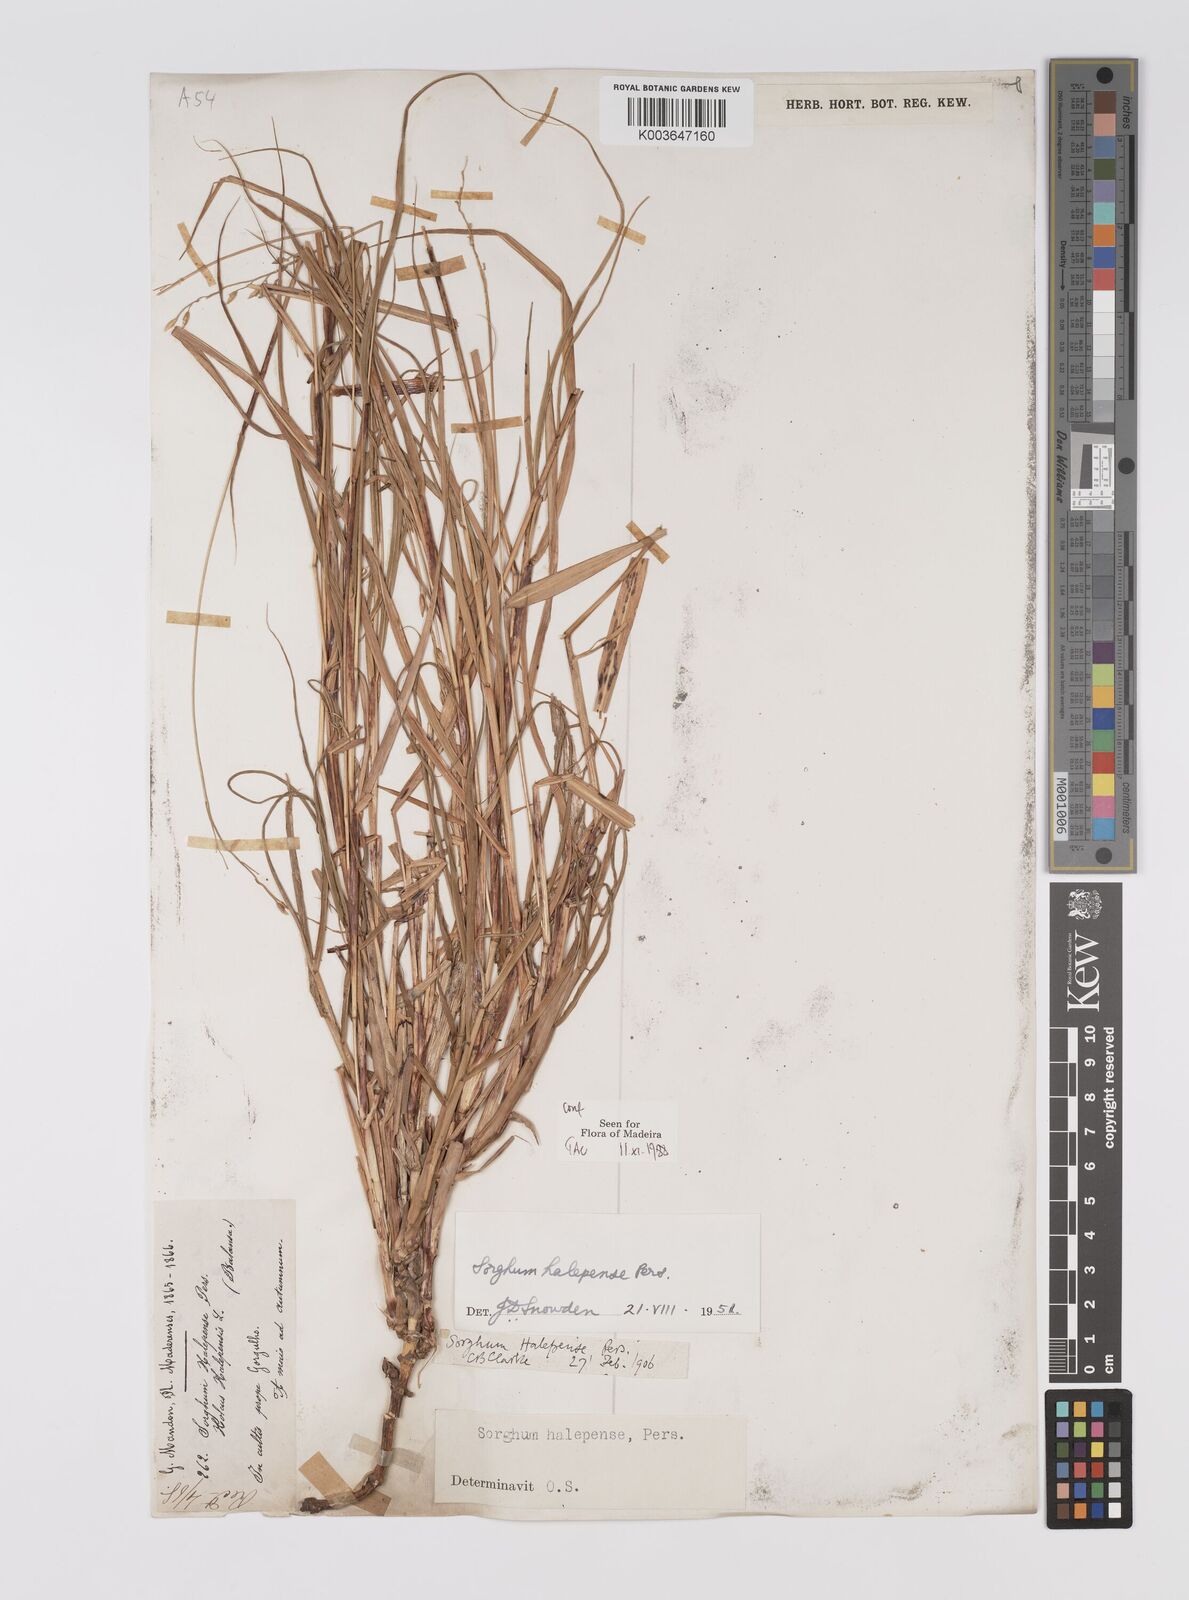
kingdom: Plantae
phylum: Tracheophyta
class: Liliopsida
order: Poales
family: Poaceae
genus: Sorghum
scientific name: Sorghum halepense
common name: Johnson-grass
